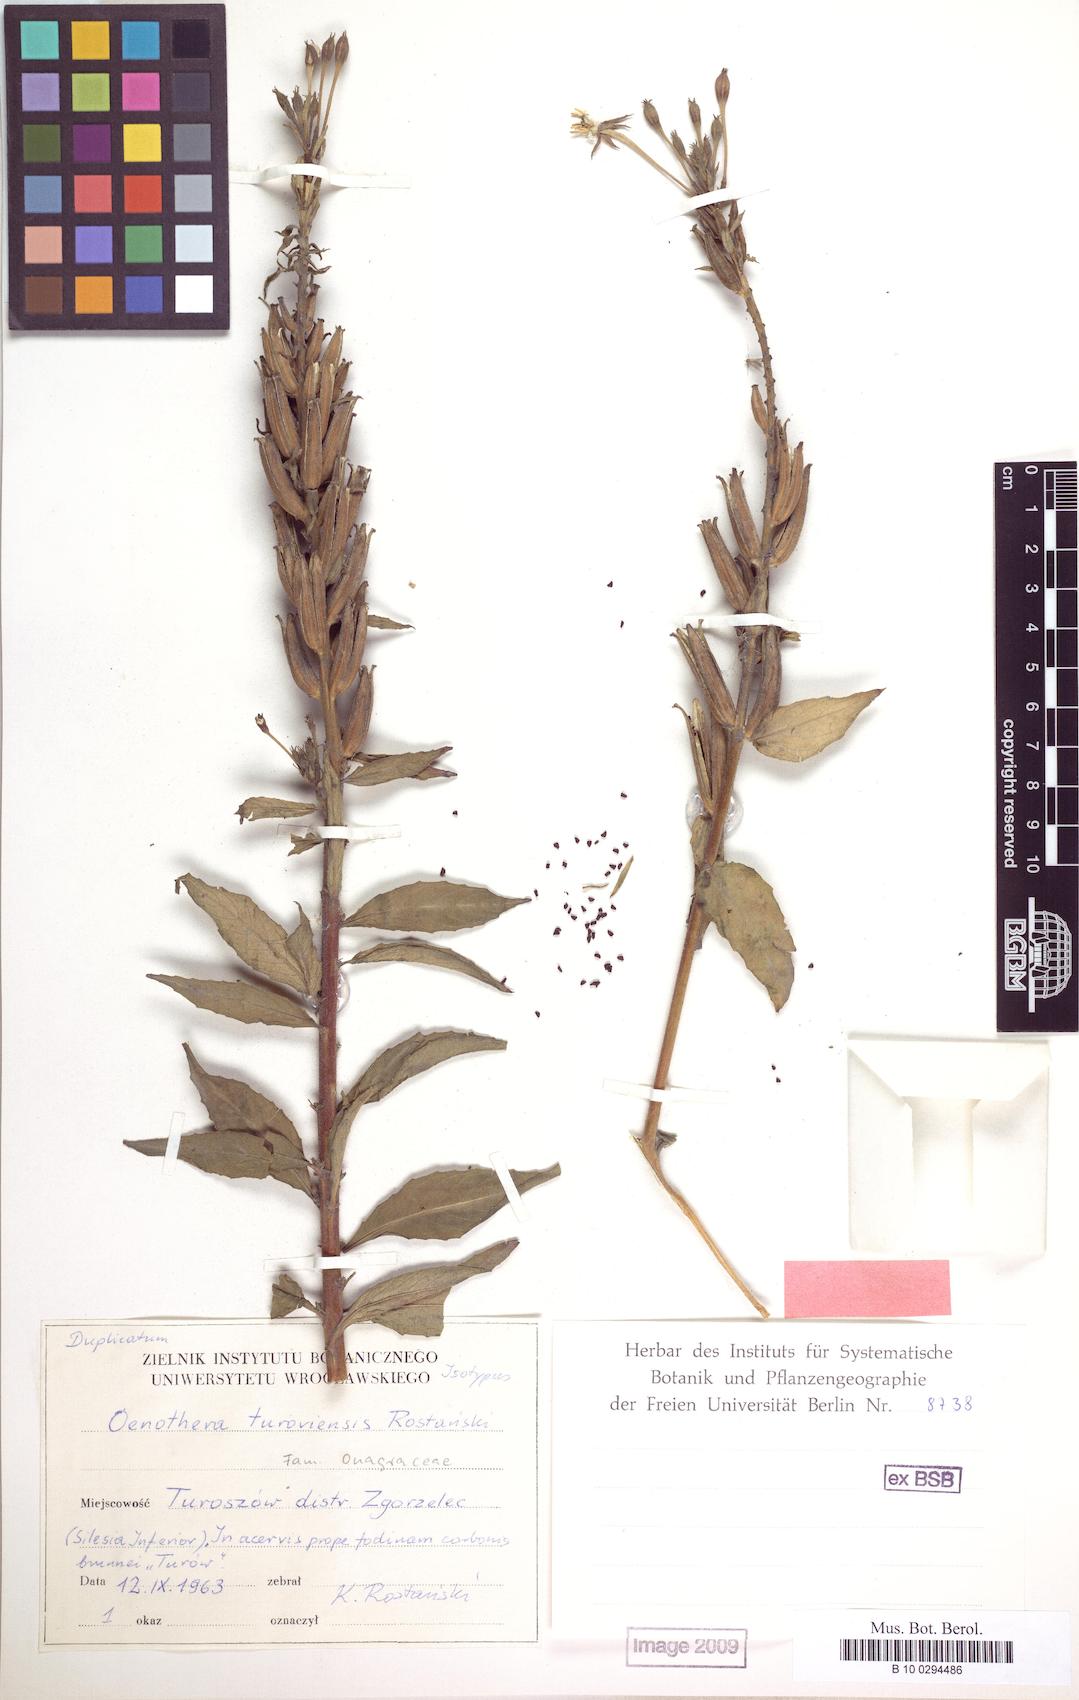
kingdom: Plantae
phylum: Tracheophyta
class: Magnoliopsida
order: Myrtales
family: Onagraceae
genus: Oenothera
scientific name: Oenothera turoviensis
